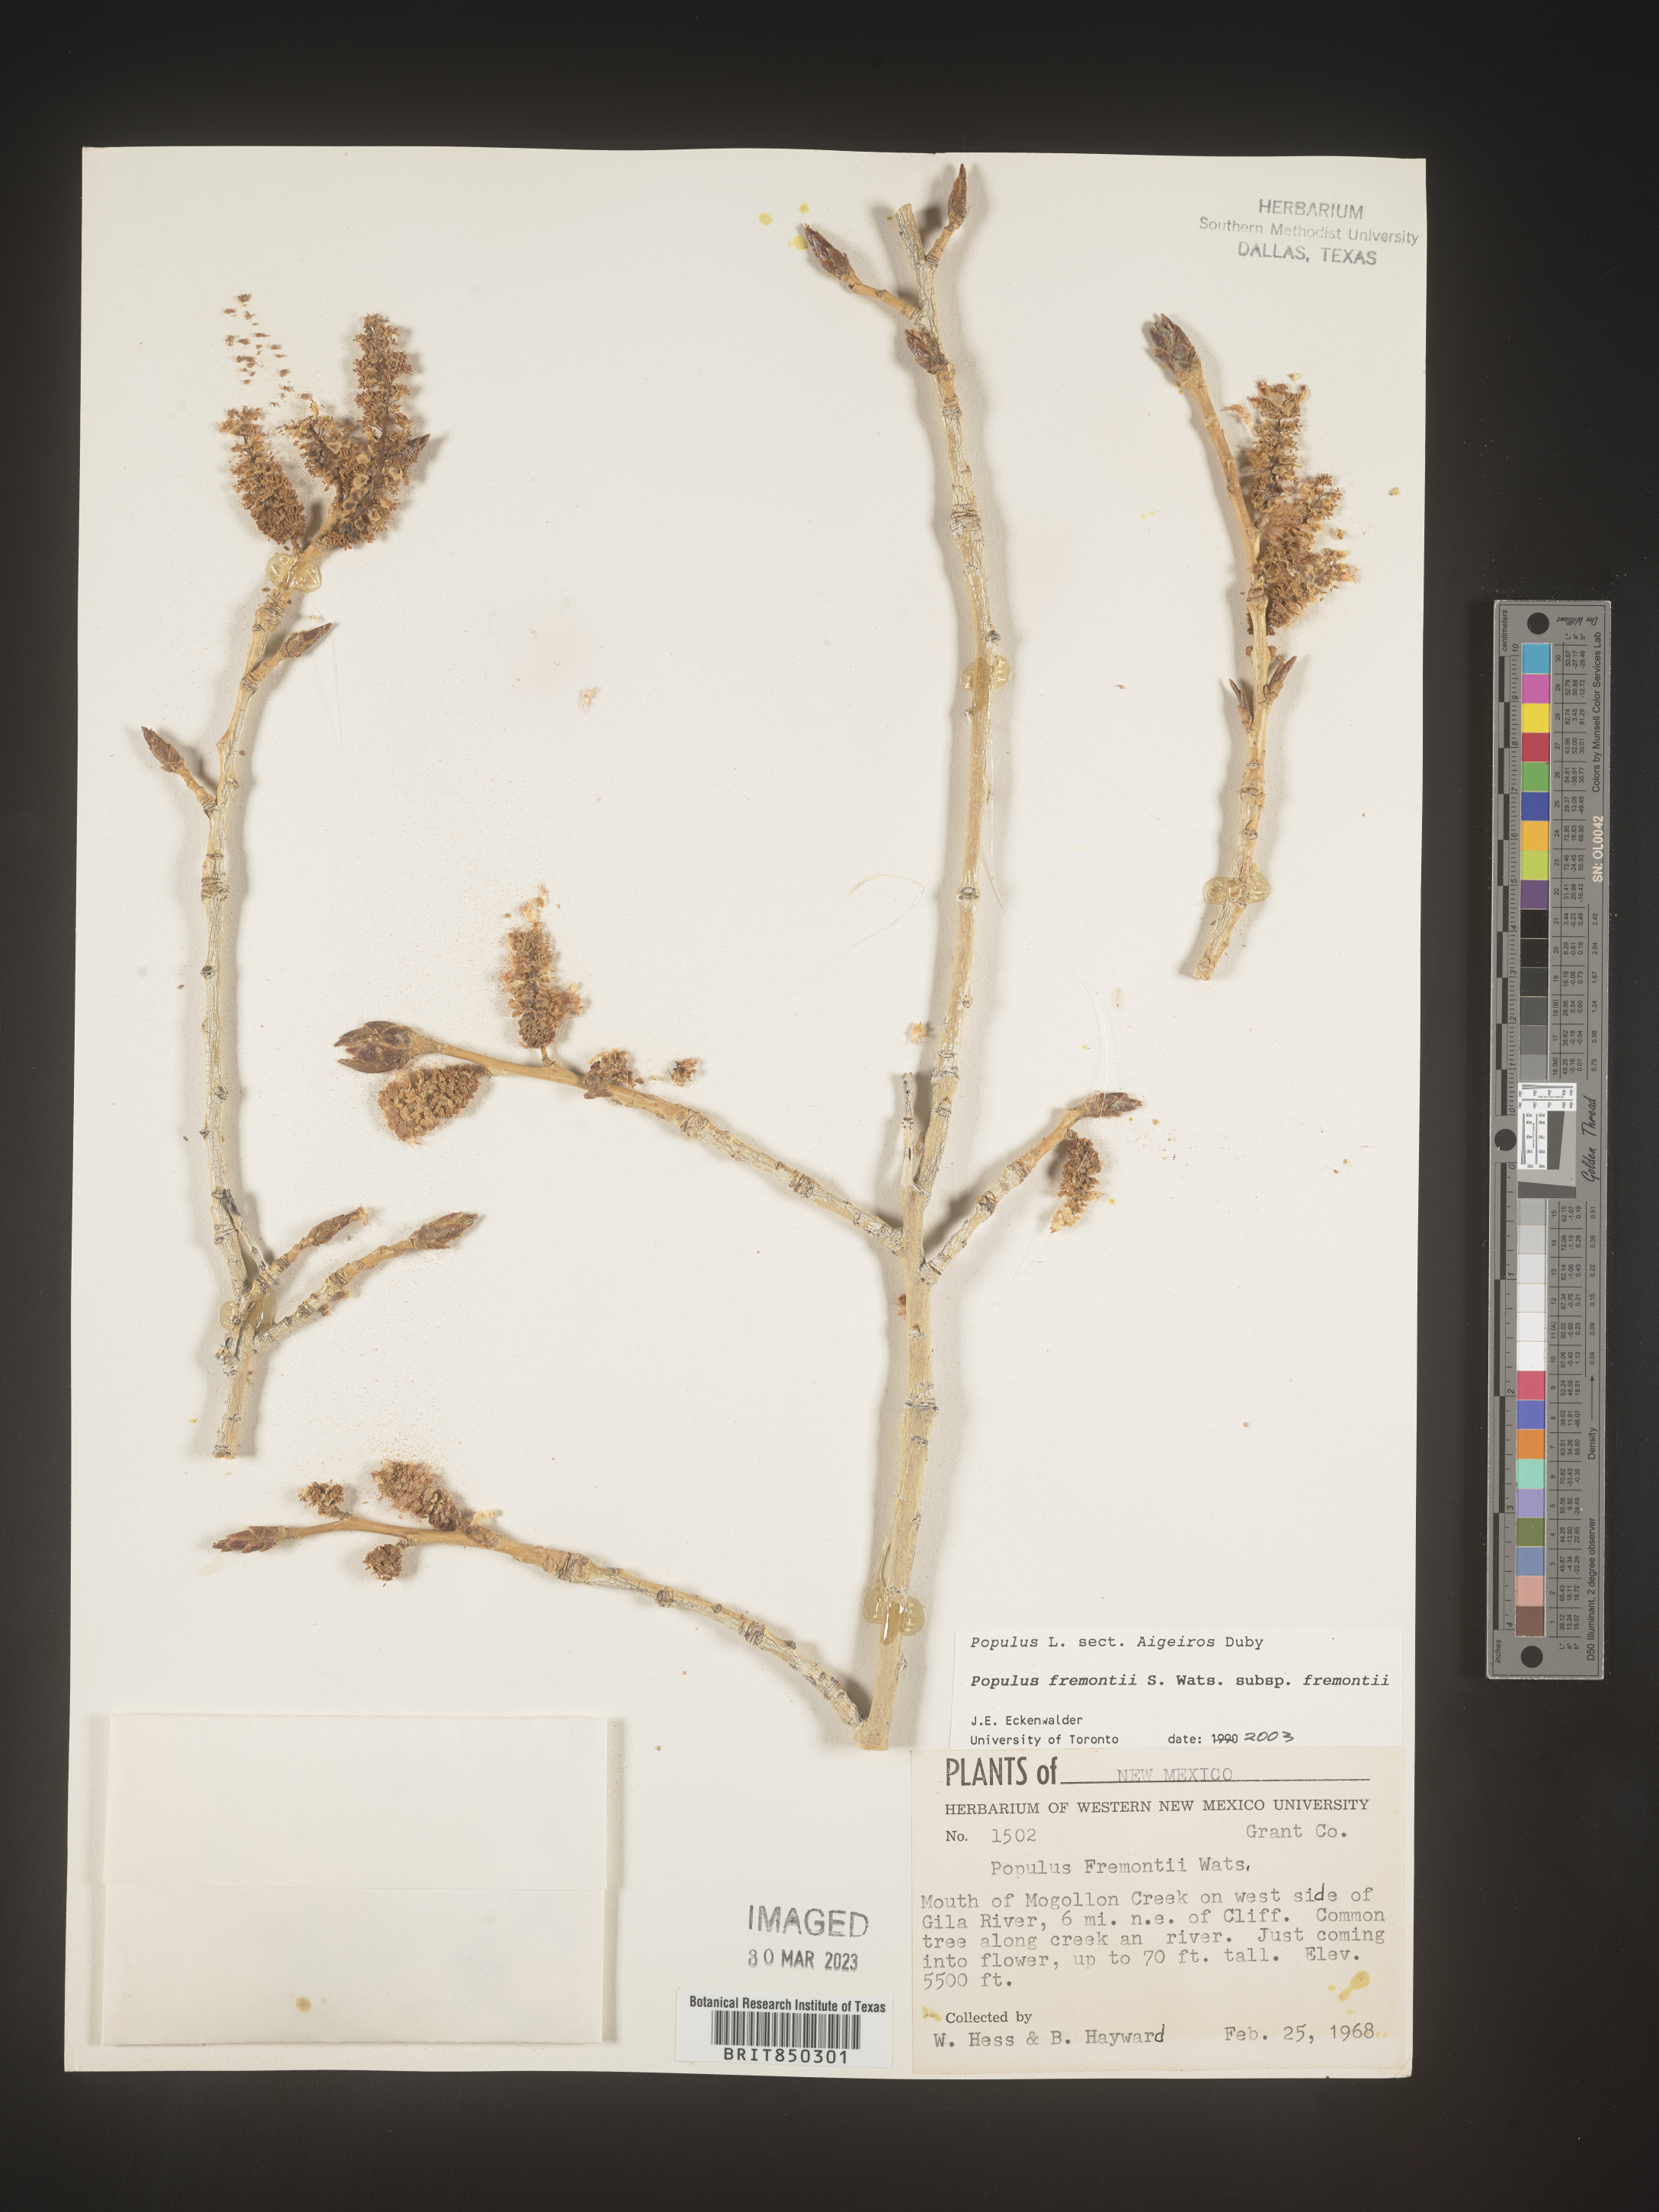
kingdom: Plantae
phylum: Tracheophyta
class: Magnoliopsida
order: Malpighiales
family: Salicaceae
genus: Populus
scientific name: Populus fremontii
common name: Fremont's cottonwood
